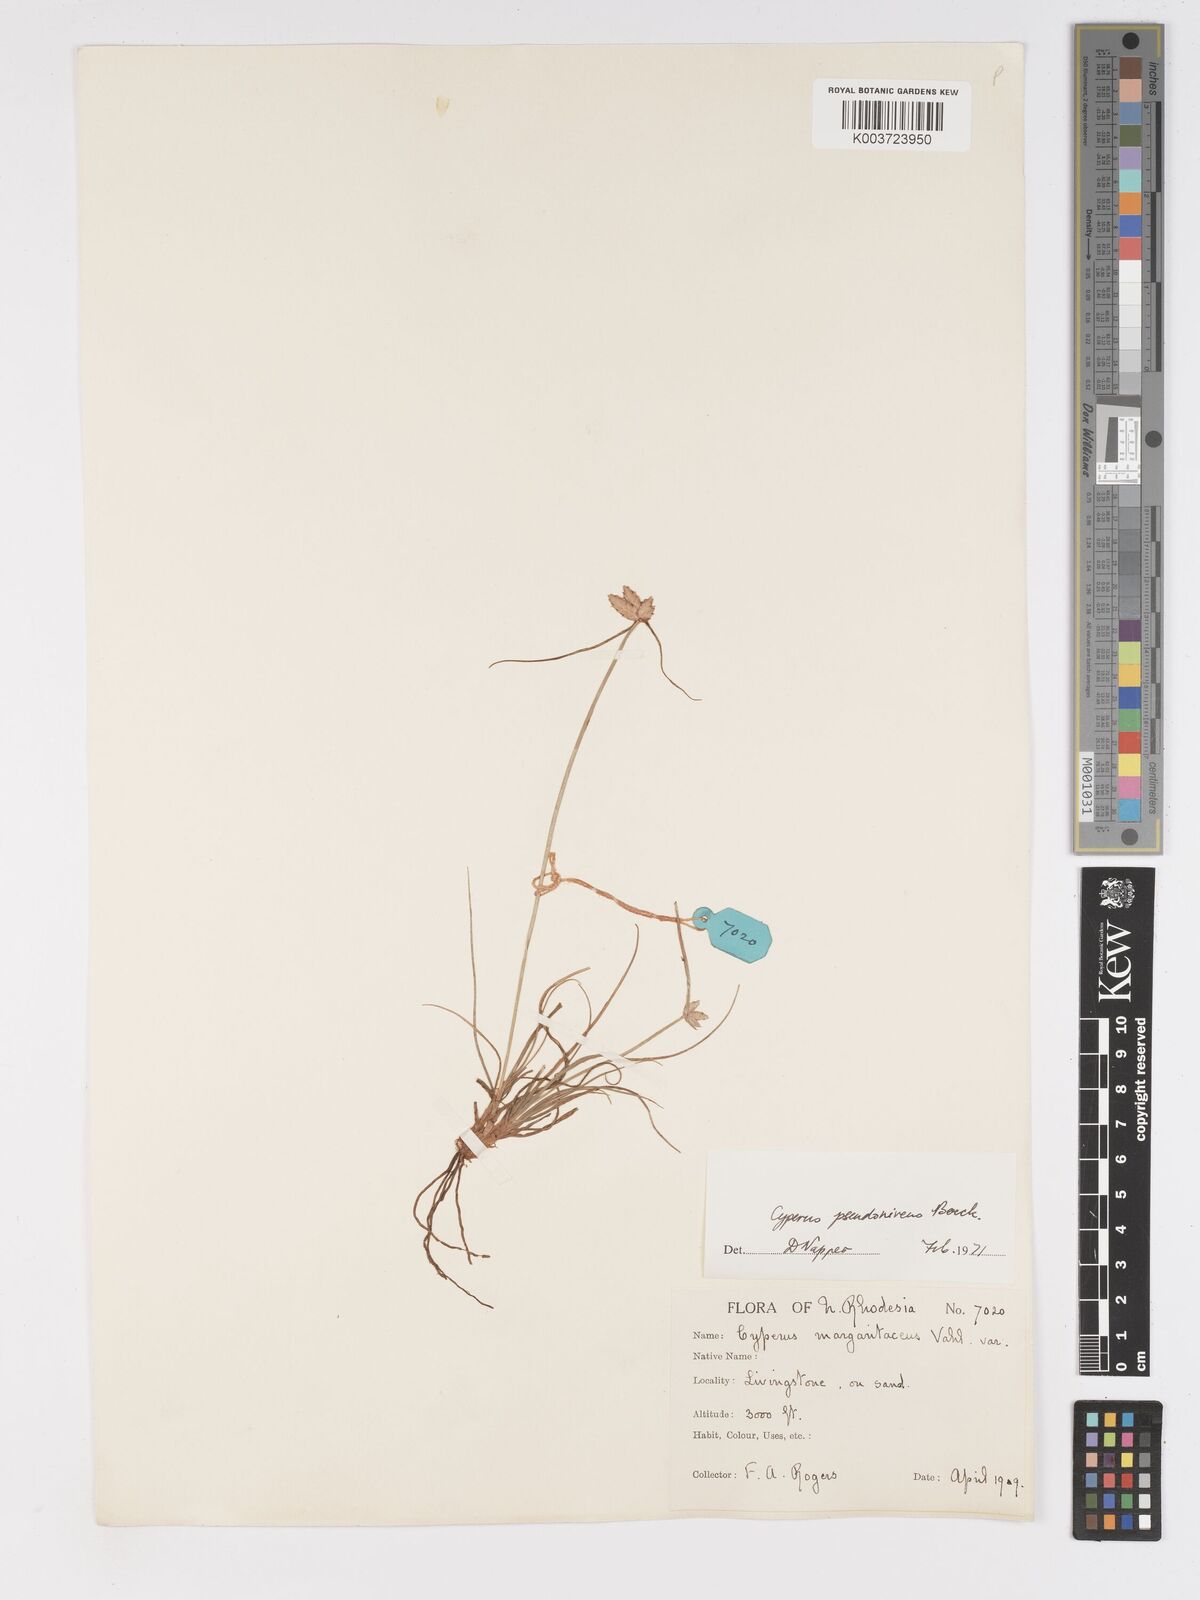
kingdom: Plantae
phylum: Tracheophyta
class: Liliopsida
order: Poales
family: Cyperaceae
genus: Cyperus
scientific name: Cyperus margaritaceus
